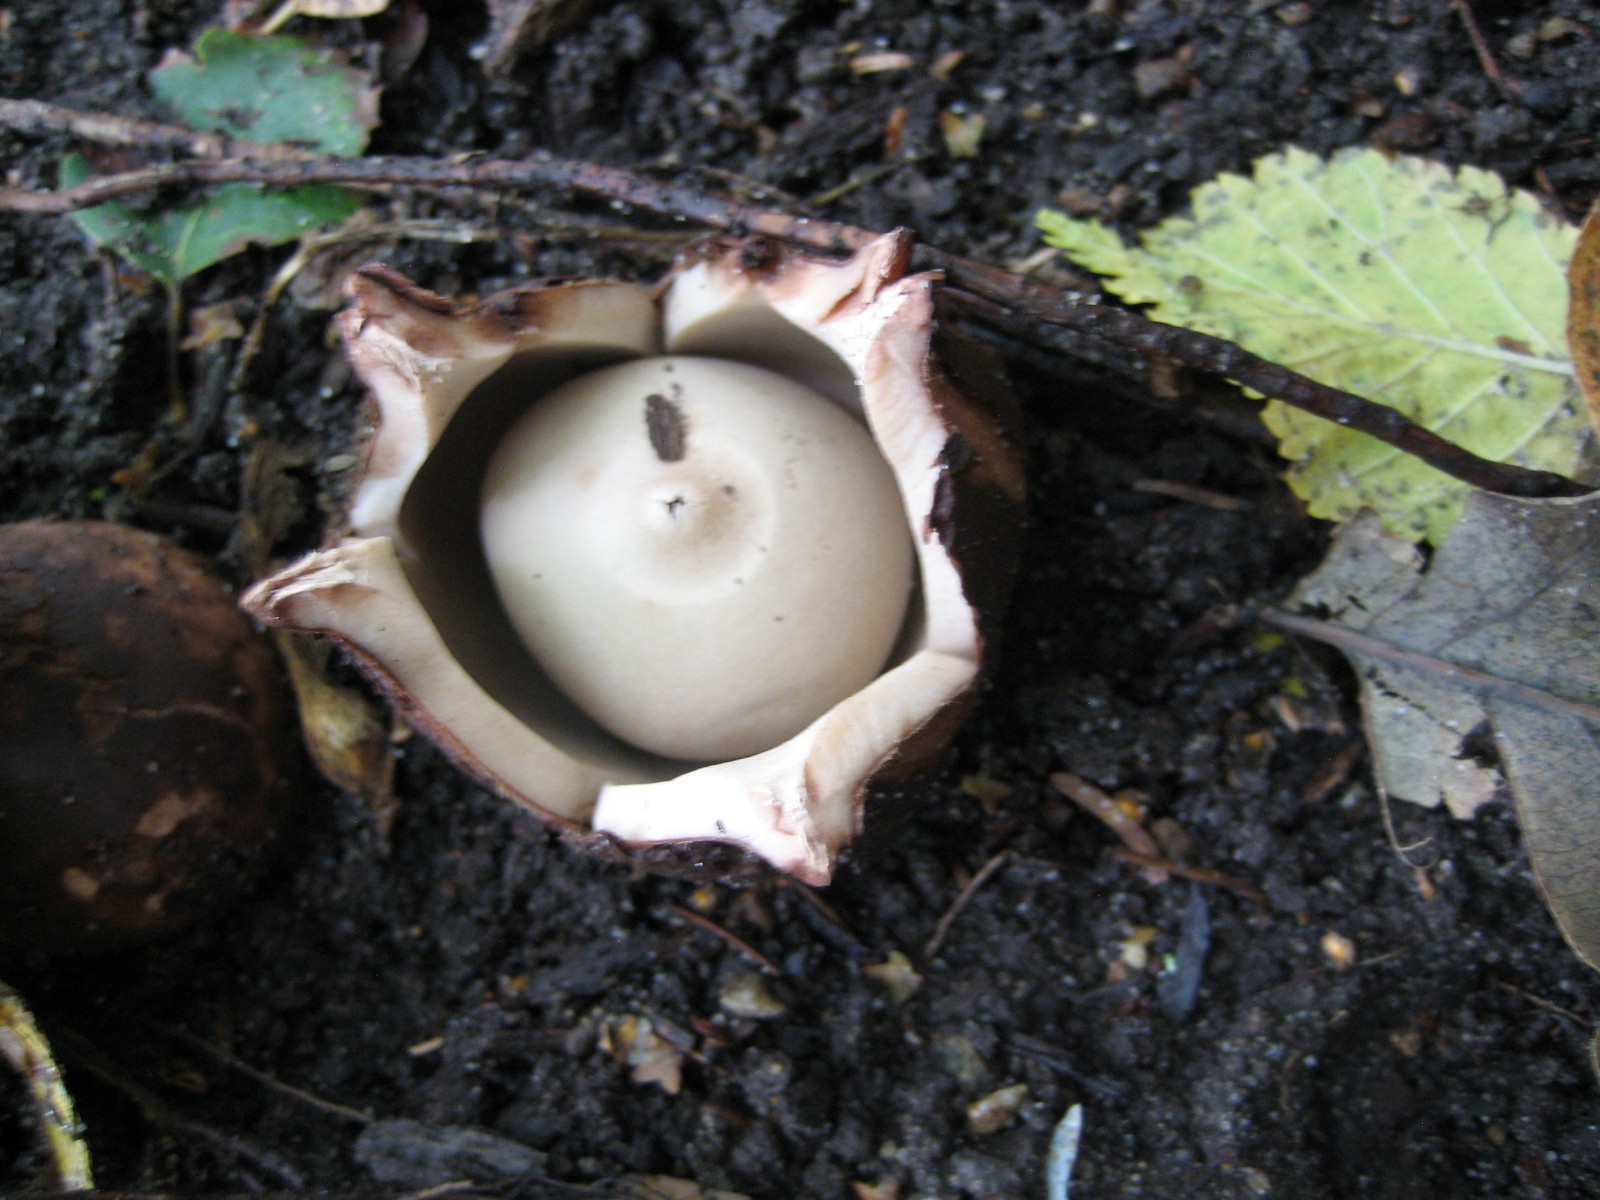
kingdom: Fungi
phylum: Basidiomycota
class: Agaricomycetes
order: Geastrales
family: Geastraceae
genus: Geastrum
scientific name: Geastrum michelianum
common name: kødet stjernebold
